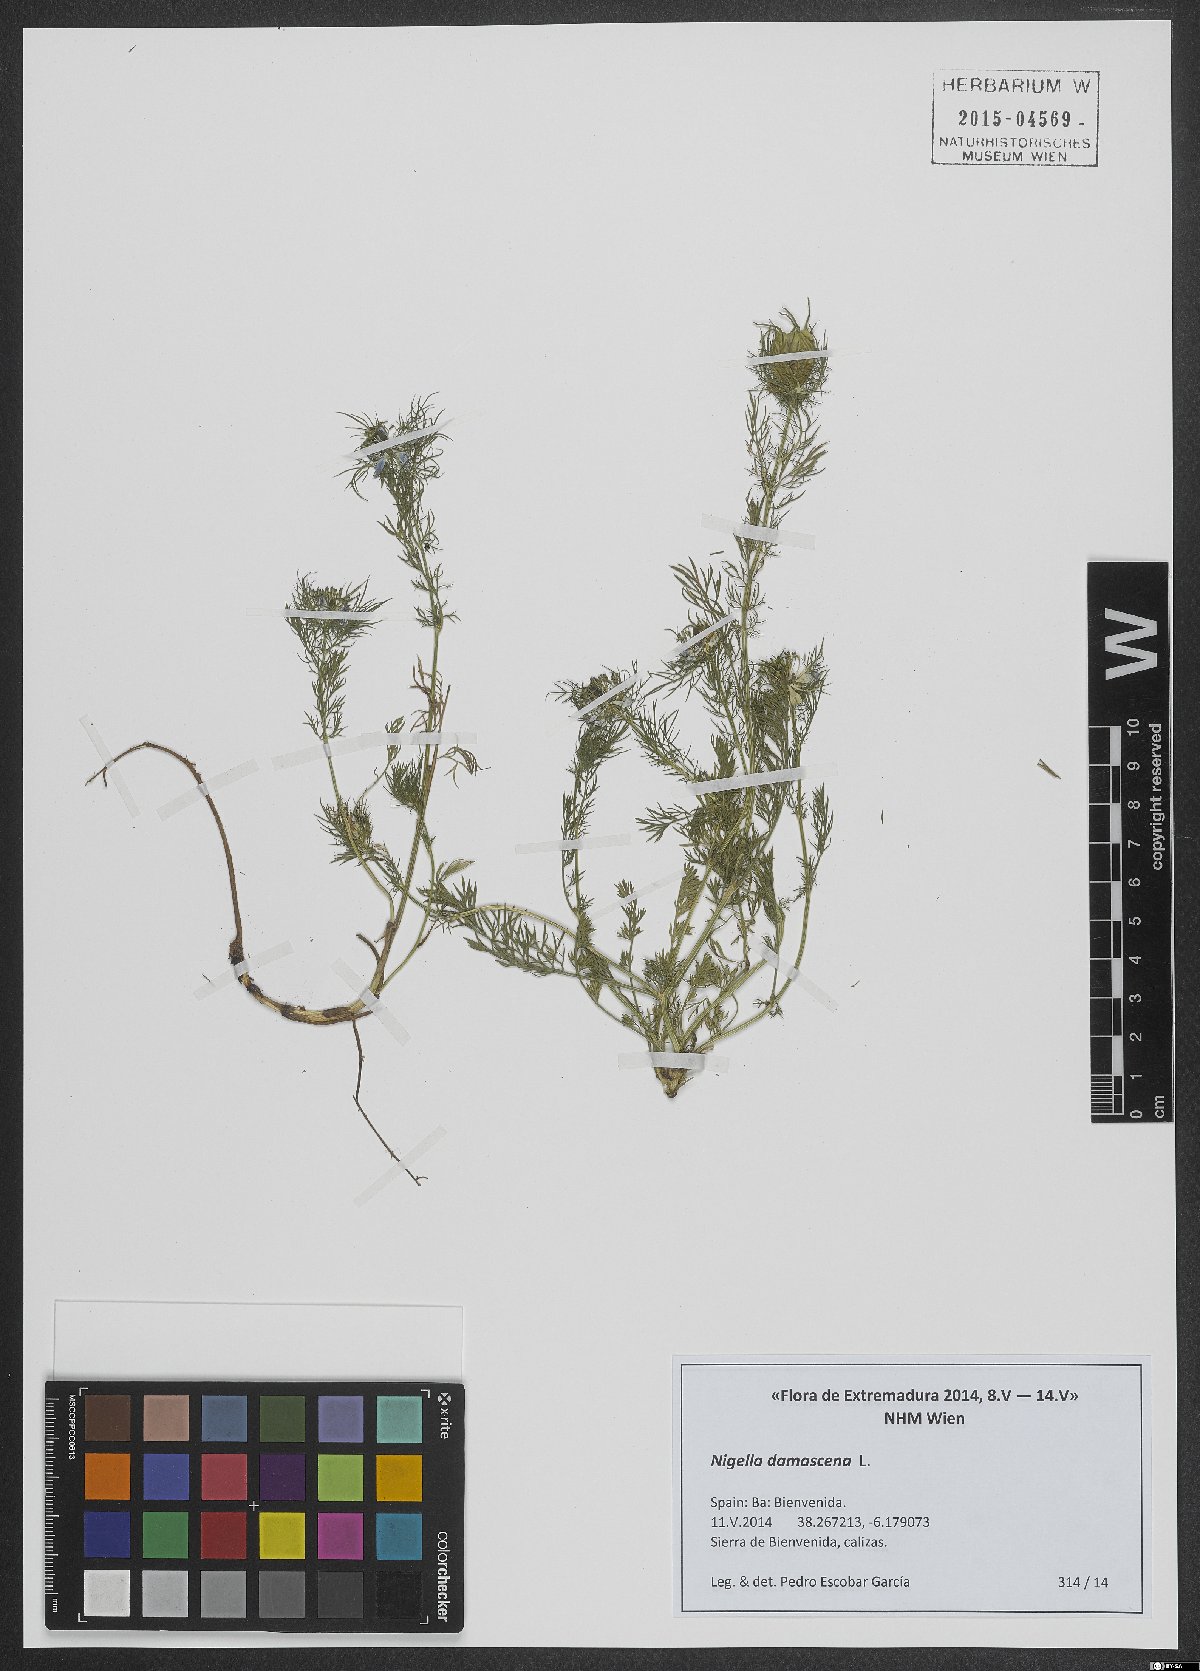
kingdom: Plantae
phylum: Tracheophyta
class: Magnoliopsida
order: Ranunculales
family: Ranunculaceae
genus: Nigella
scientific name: Nigella damascena
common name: Love-in-a-mist
